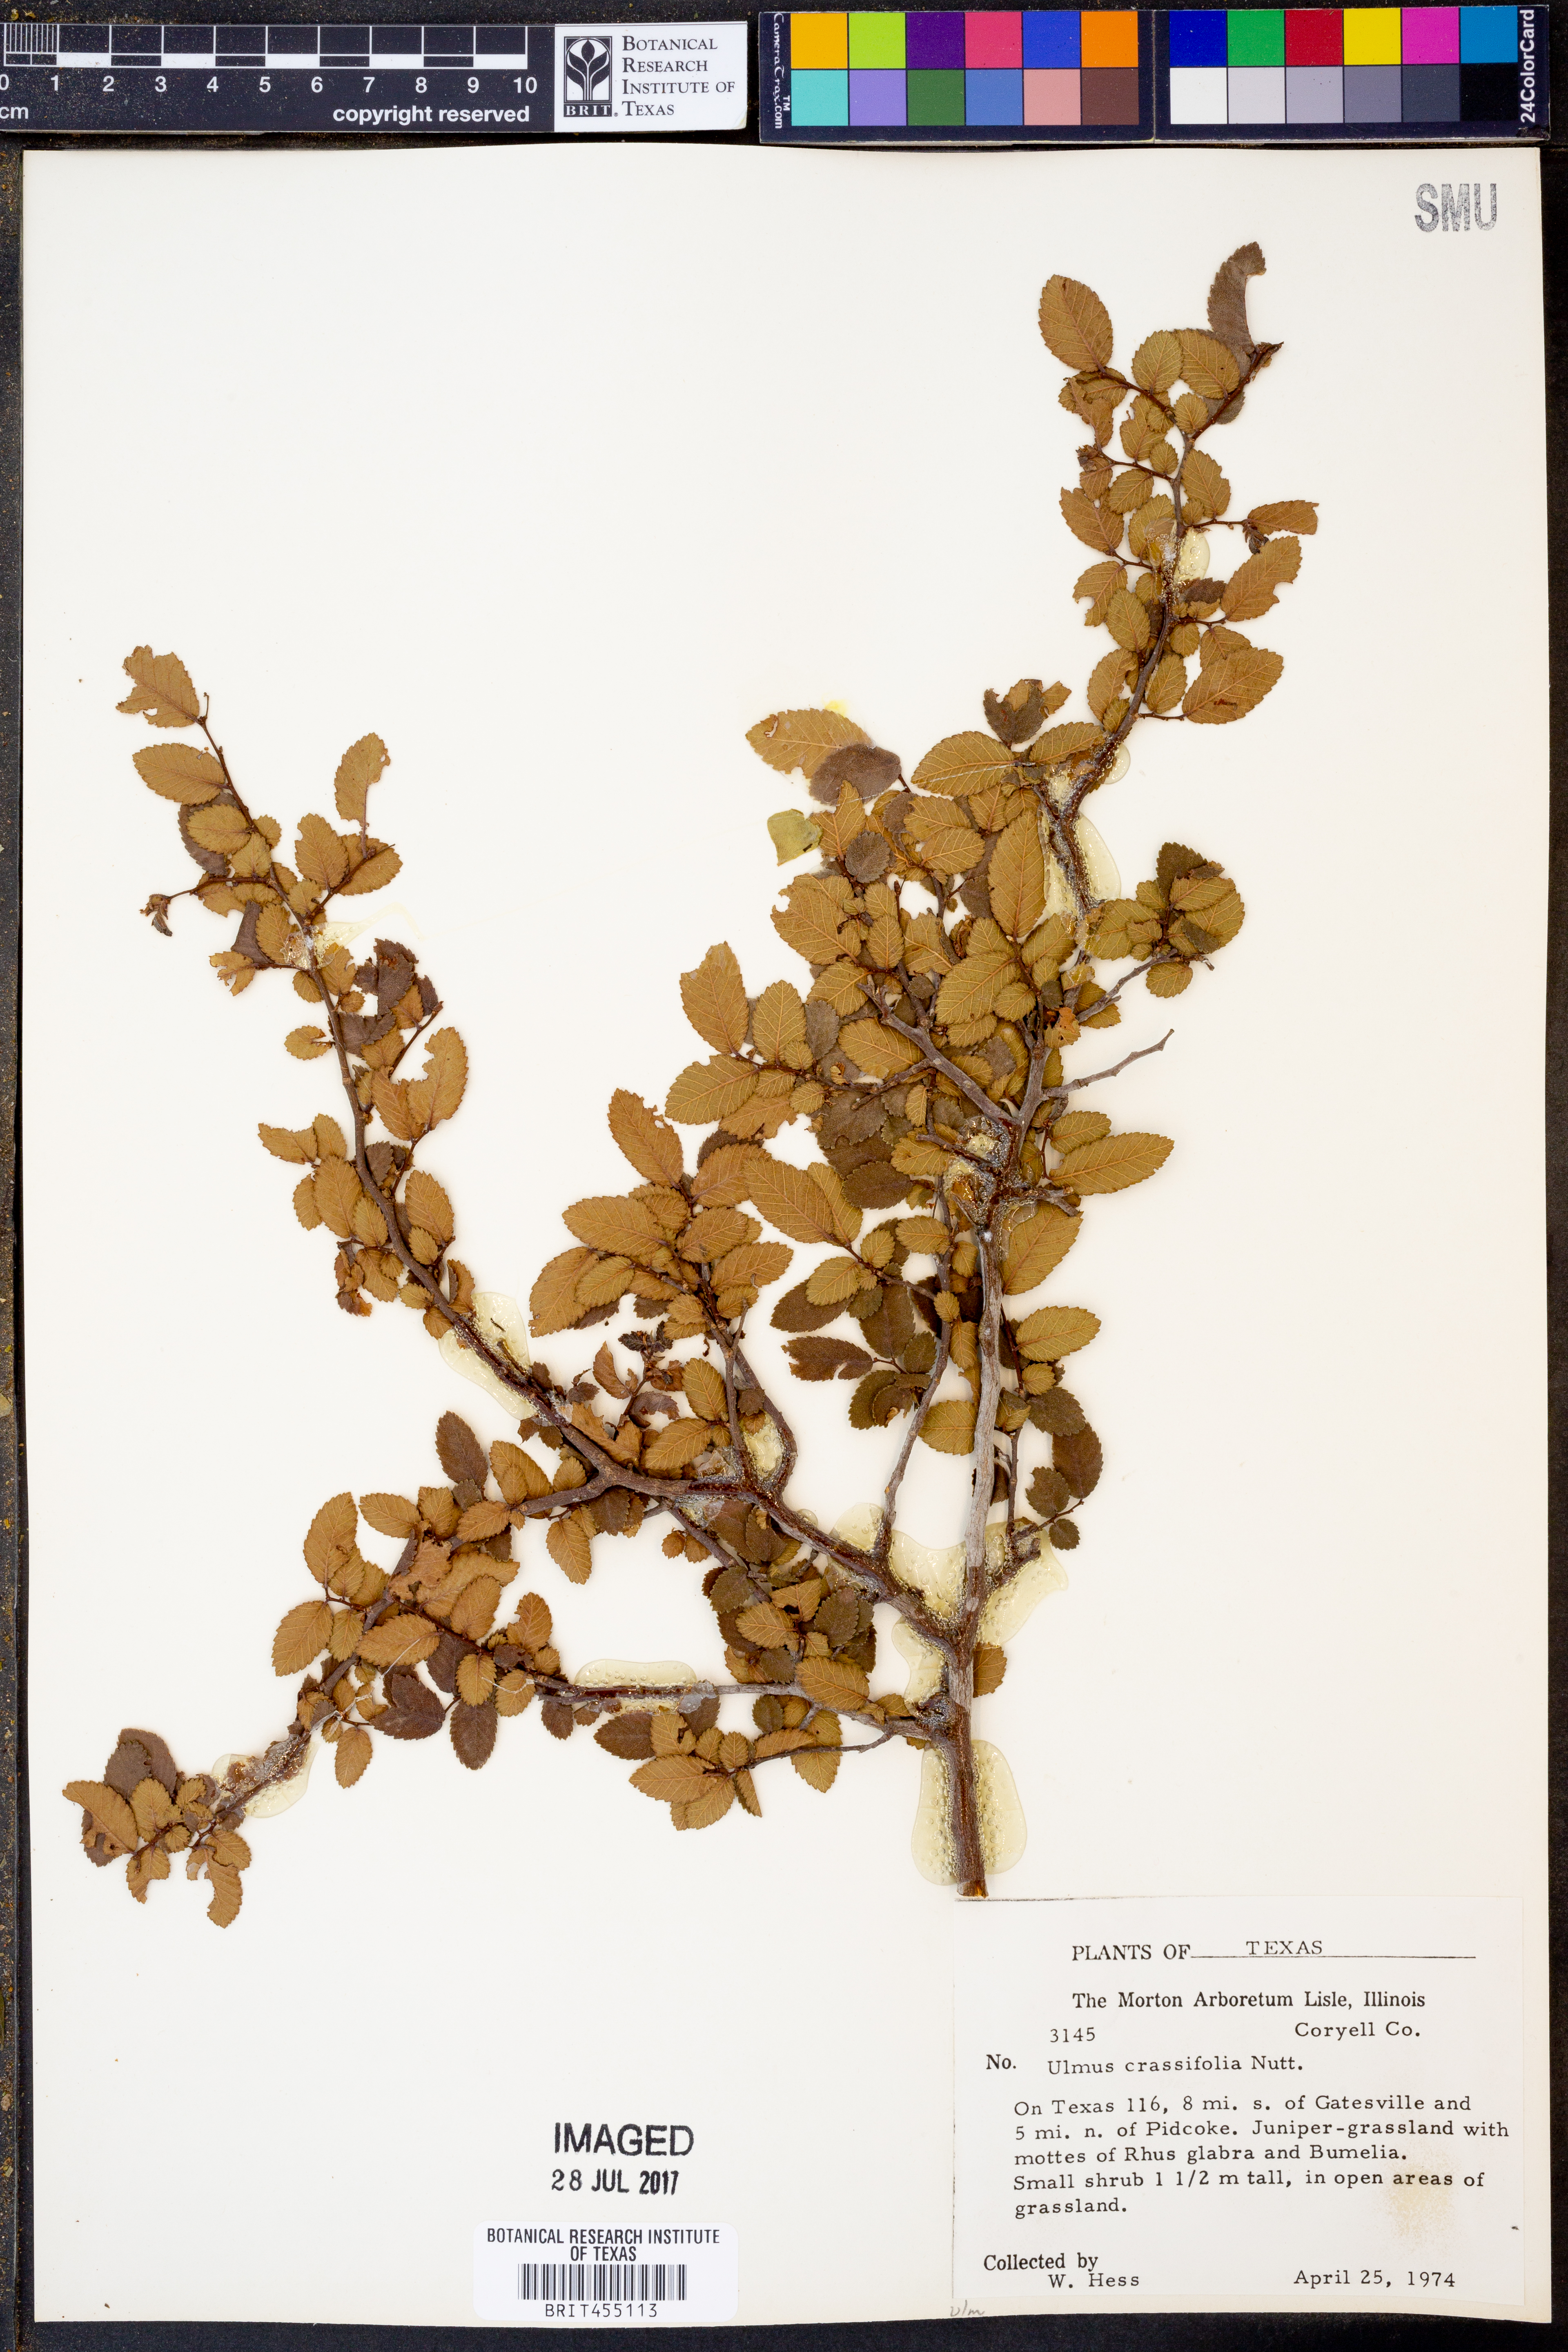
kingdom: Plantae
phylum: Tracheophyta
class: Magnoliopsida
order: Rosales
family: Ulmaceae
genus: Ulmus
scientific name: Ulmus crassifolia
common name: Basket elm
